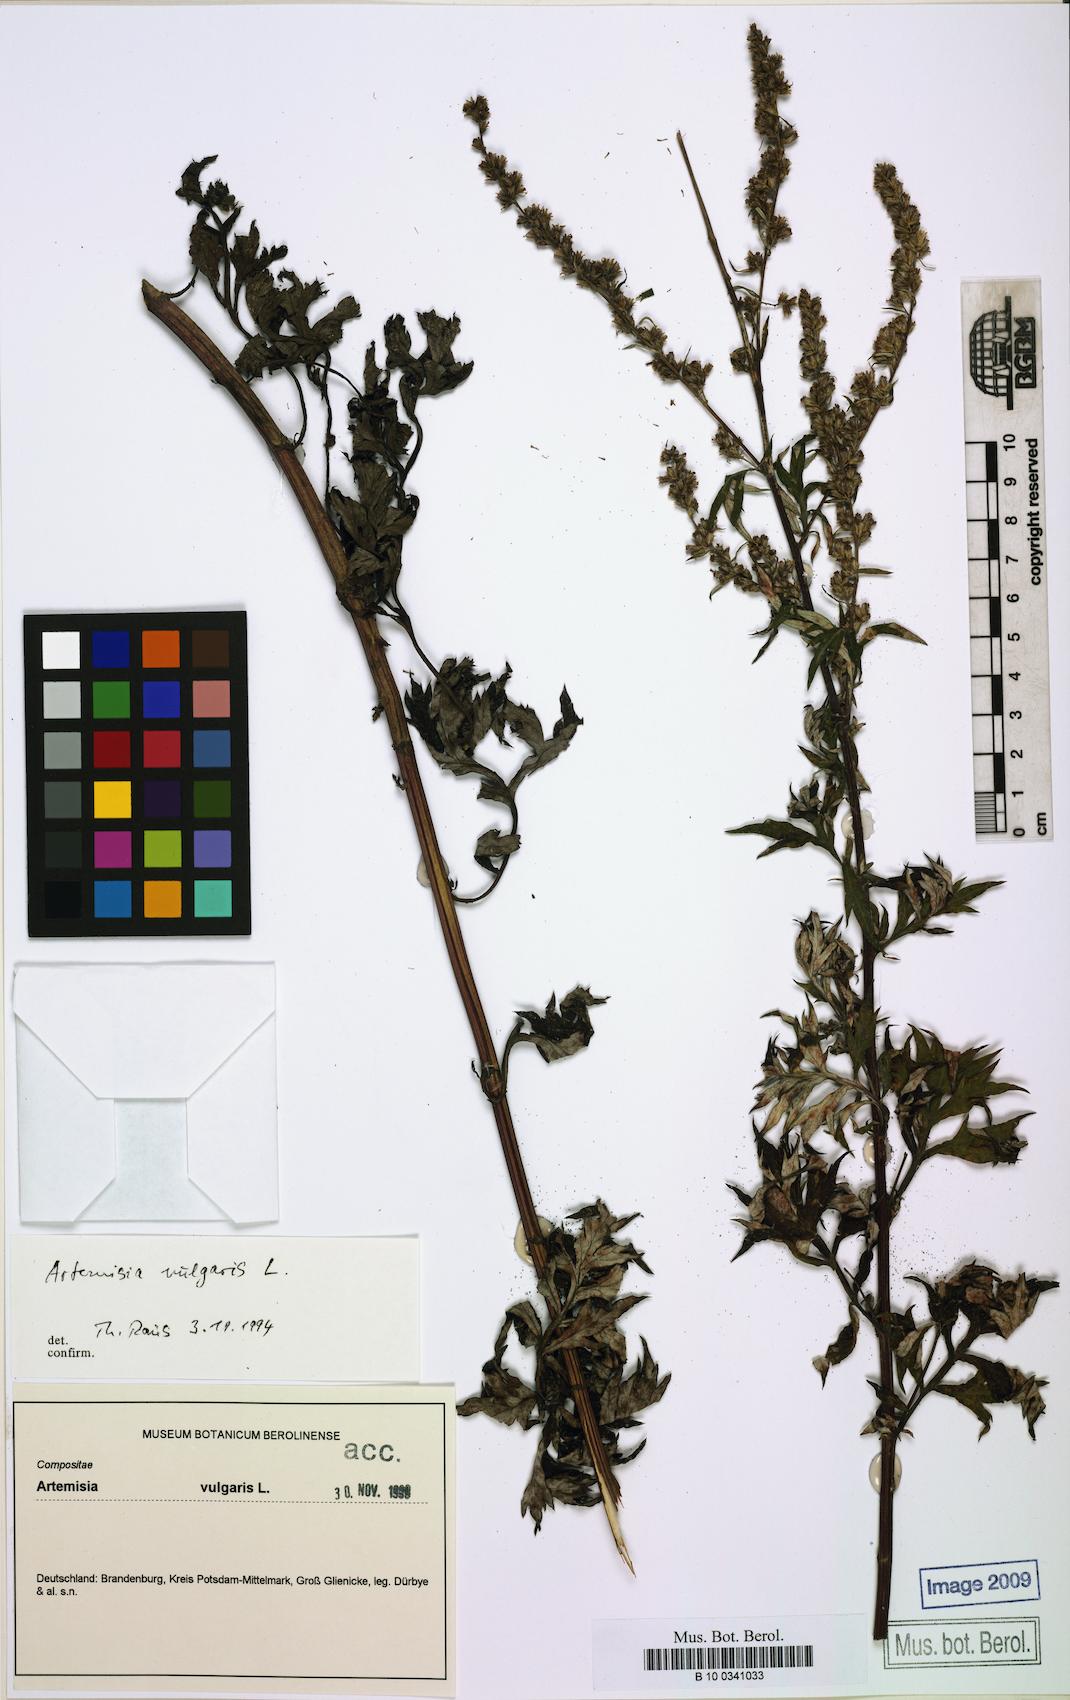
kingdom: Plantae
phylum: Tracheophyta
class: Magnoliopsida
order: Asterales
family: Asteraceae
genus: Artemisia
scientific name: Artemisia vulgaris
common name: Mugwort
